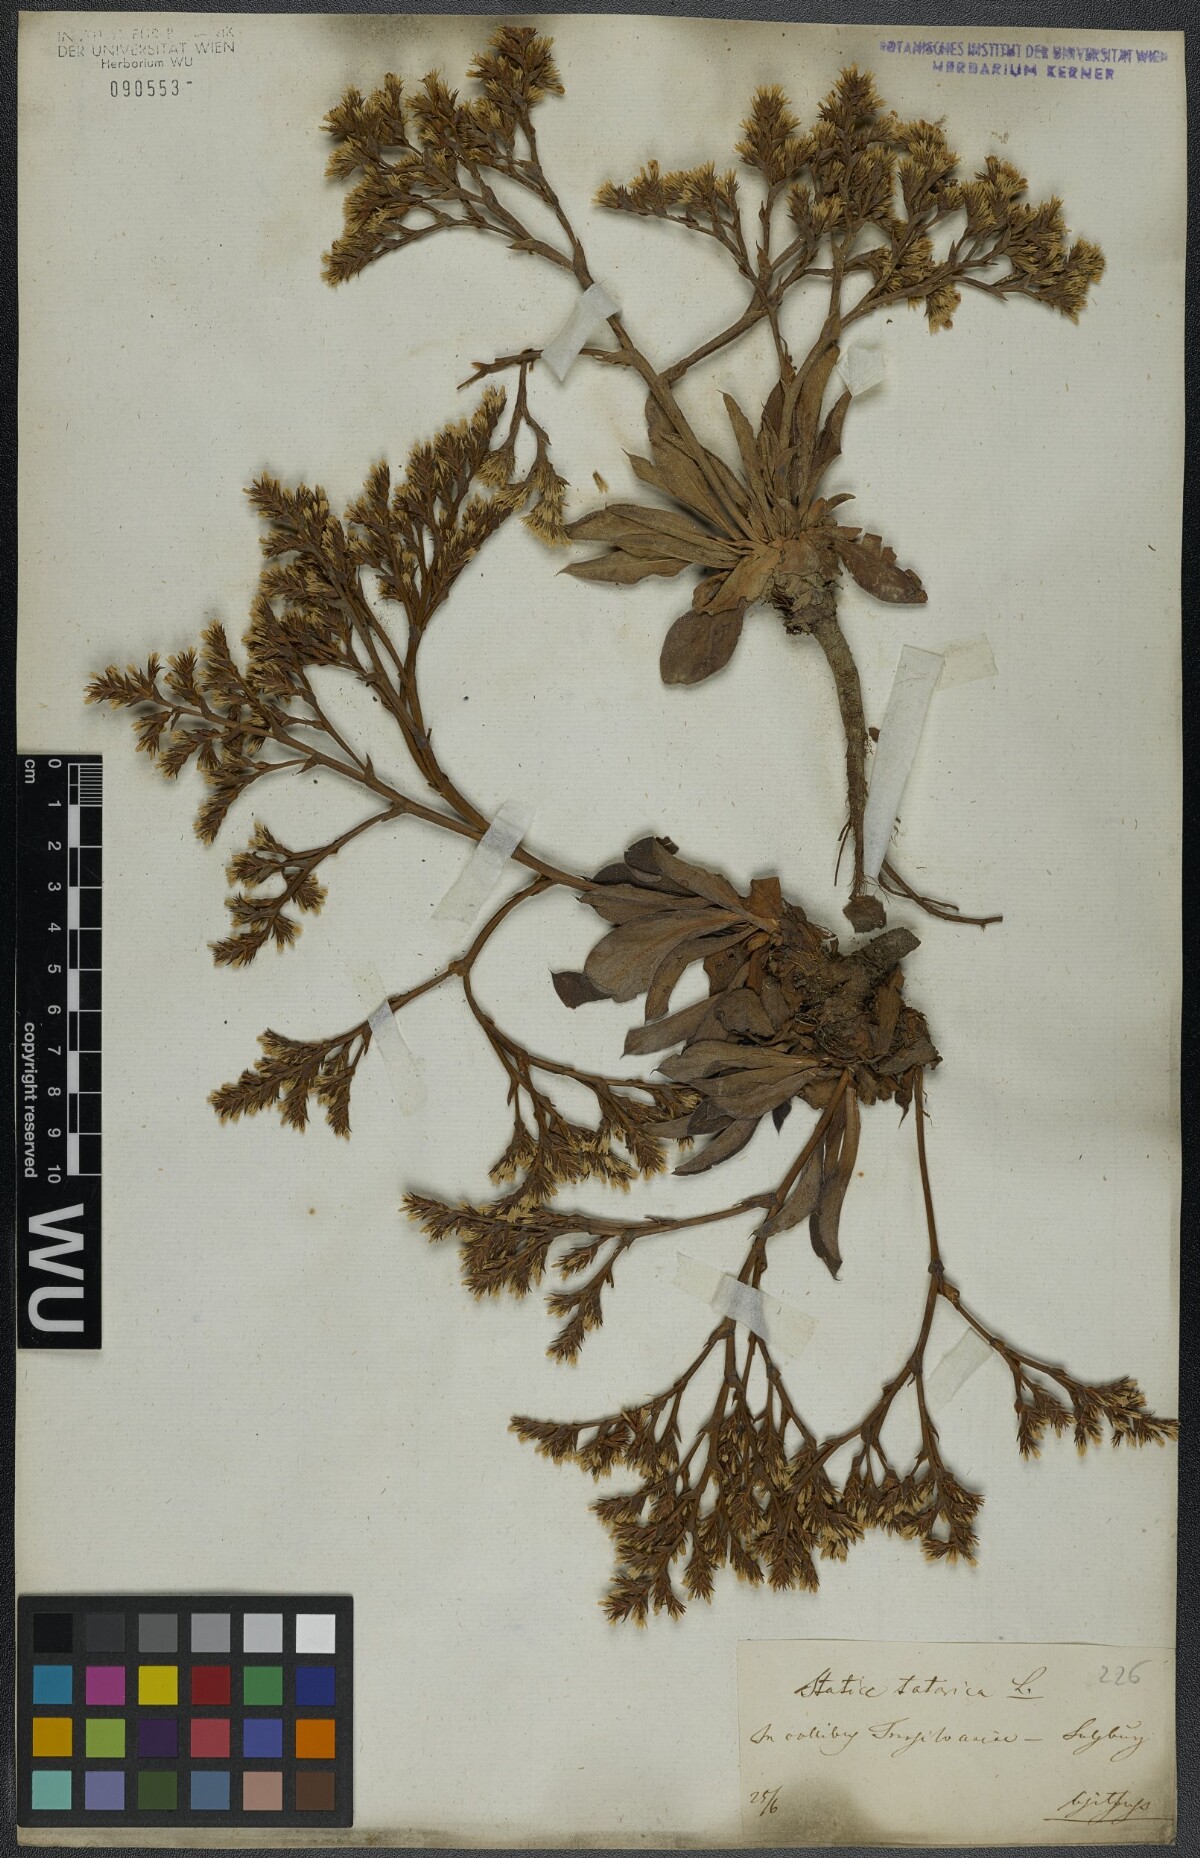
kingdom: Plantae
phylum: Tracheophyta
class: Magnoliopsida
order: Caryophyllales
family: Plumbaginaceae
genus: Goniolimon
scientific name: Goniolimon tataricum
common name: Statice
